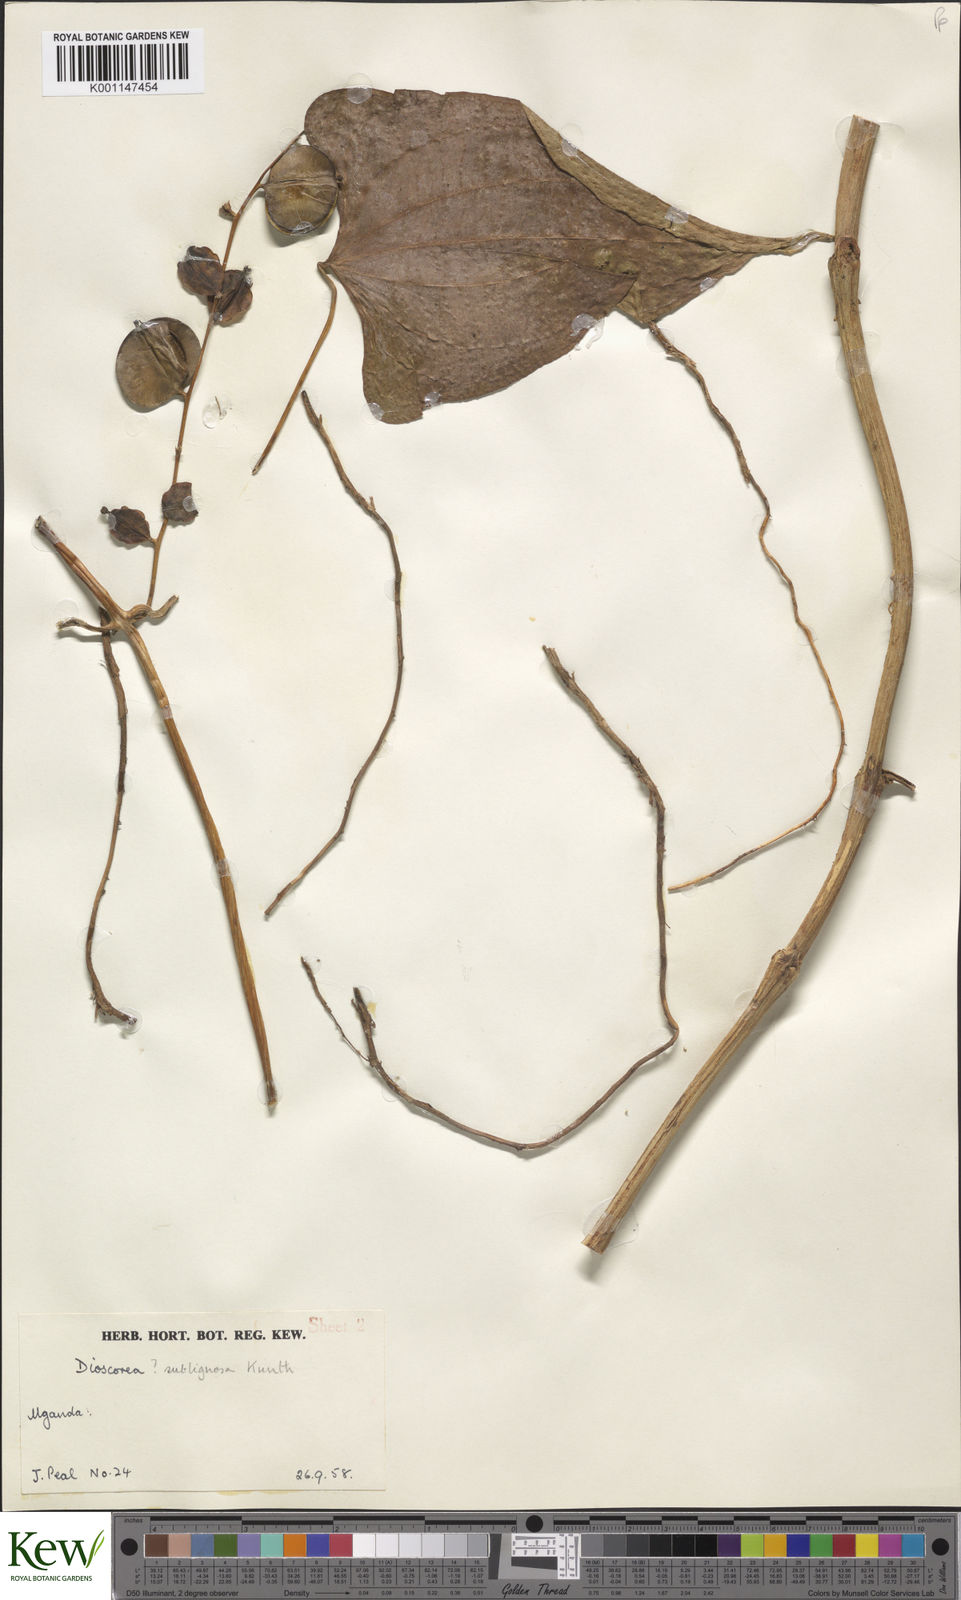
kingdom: Plantae
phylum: Tracheophyta
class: Liliopsida
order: Dioscoreales
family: Dioscoreaceae
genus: Dioscorea
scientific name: Dioscorea
